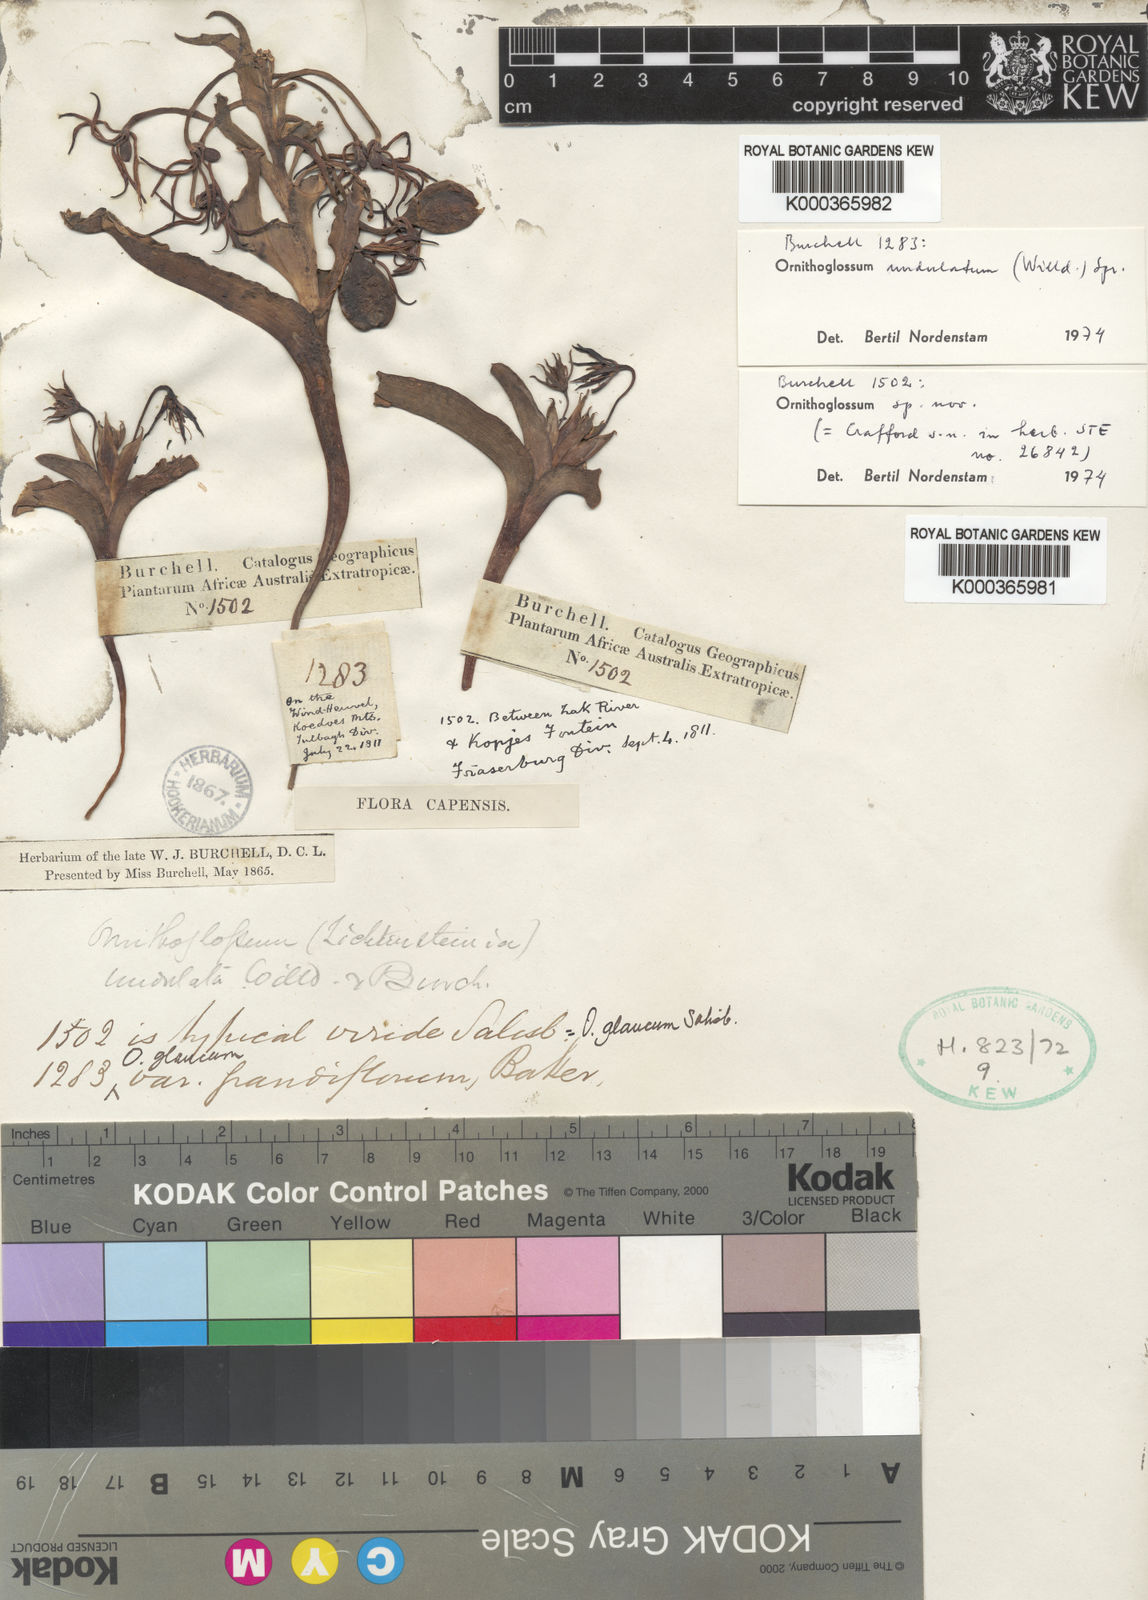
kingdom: Plantae
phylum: Tracheophyta
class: Liliopsida
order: Liliales
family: Colchicaceae
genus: Ornithoglossum
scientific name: Ornithoglossum undulatum
